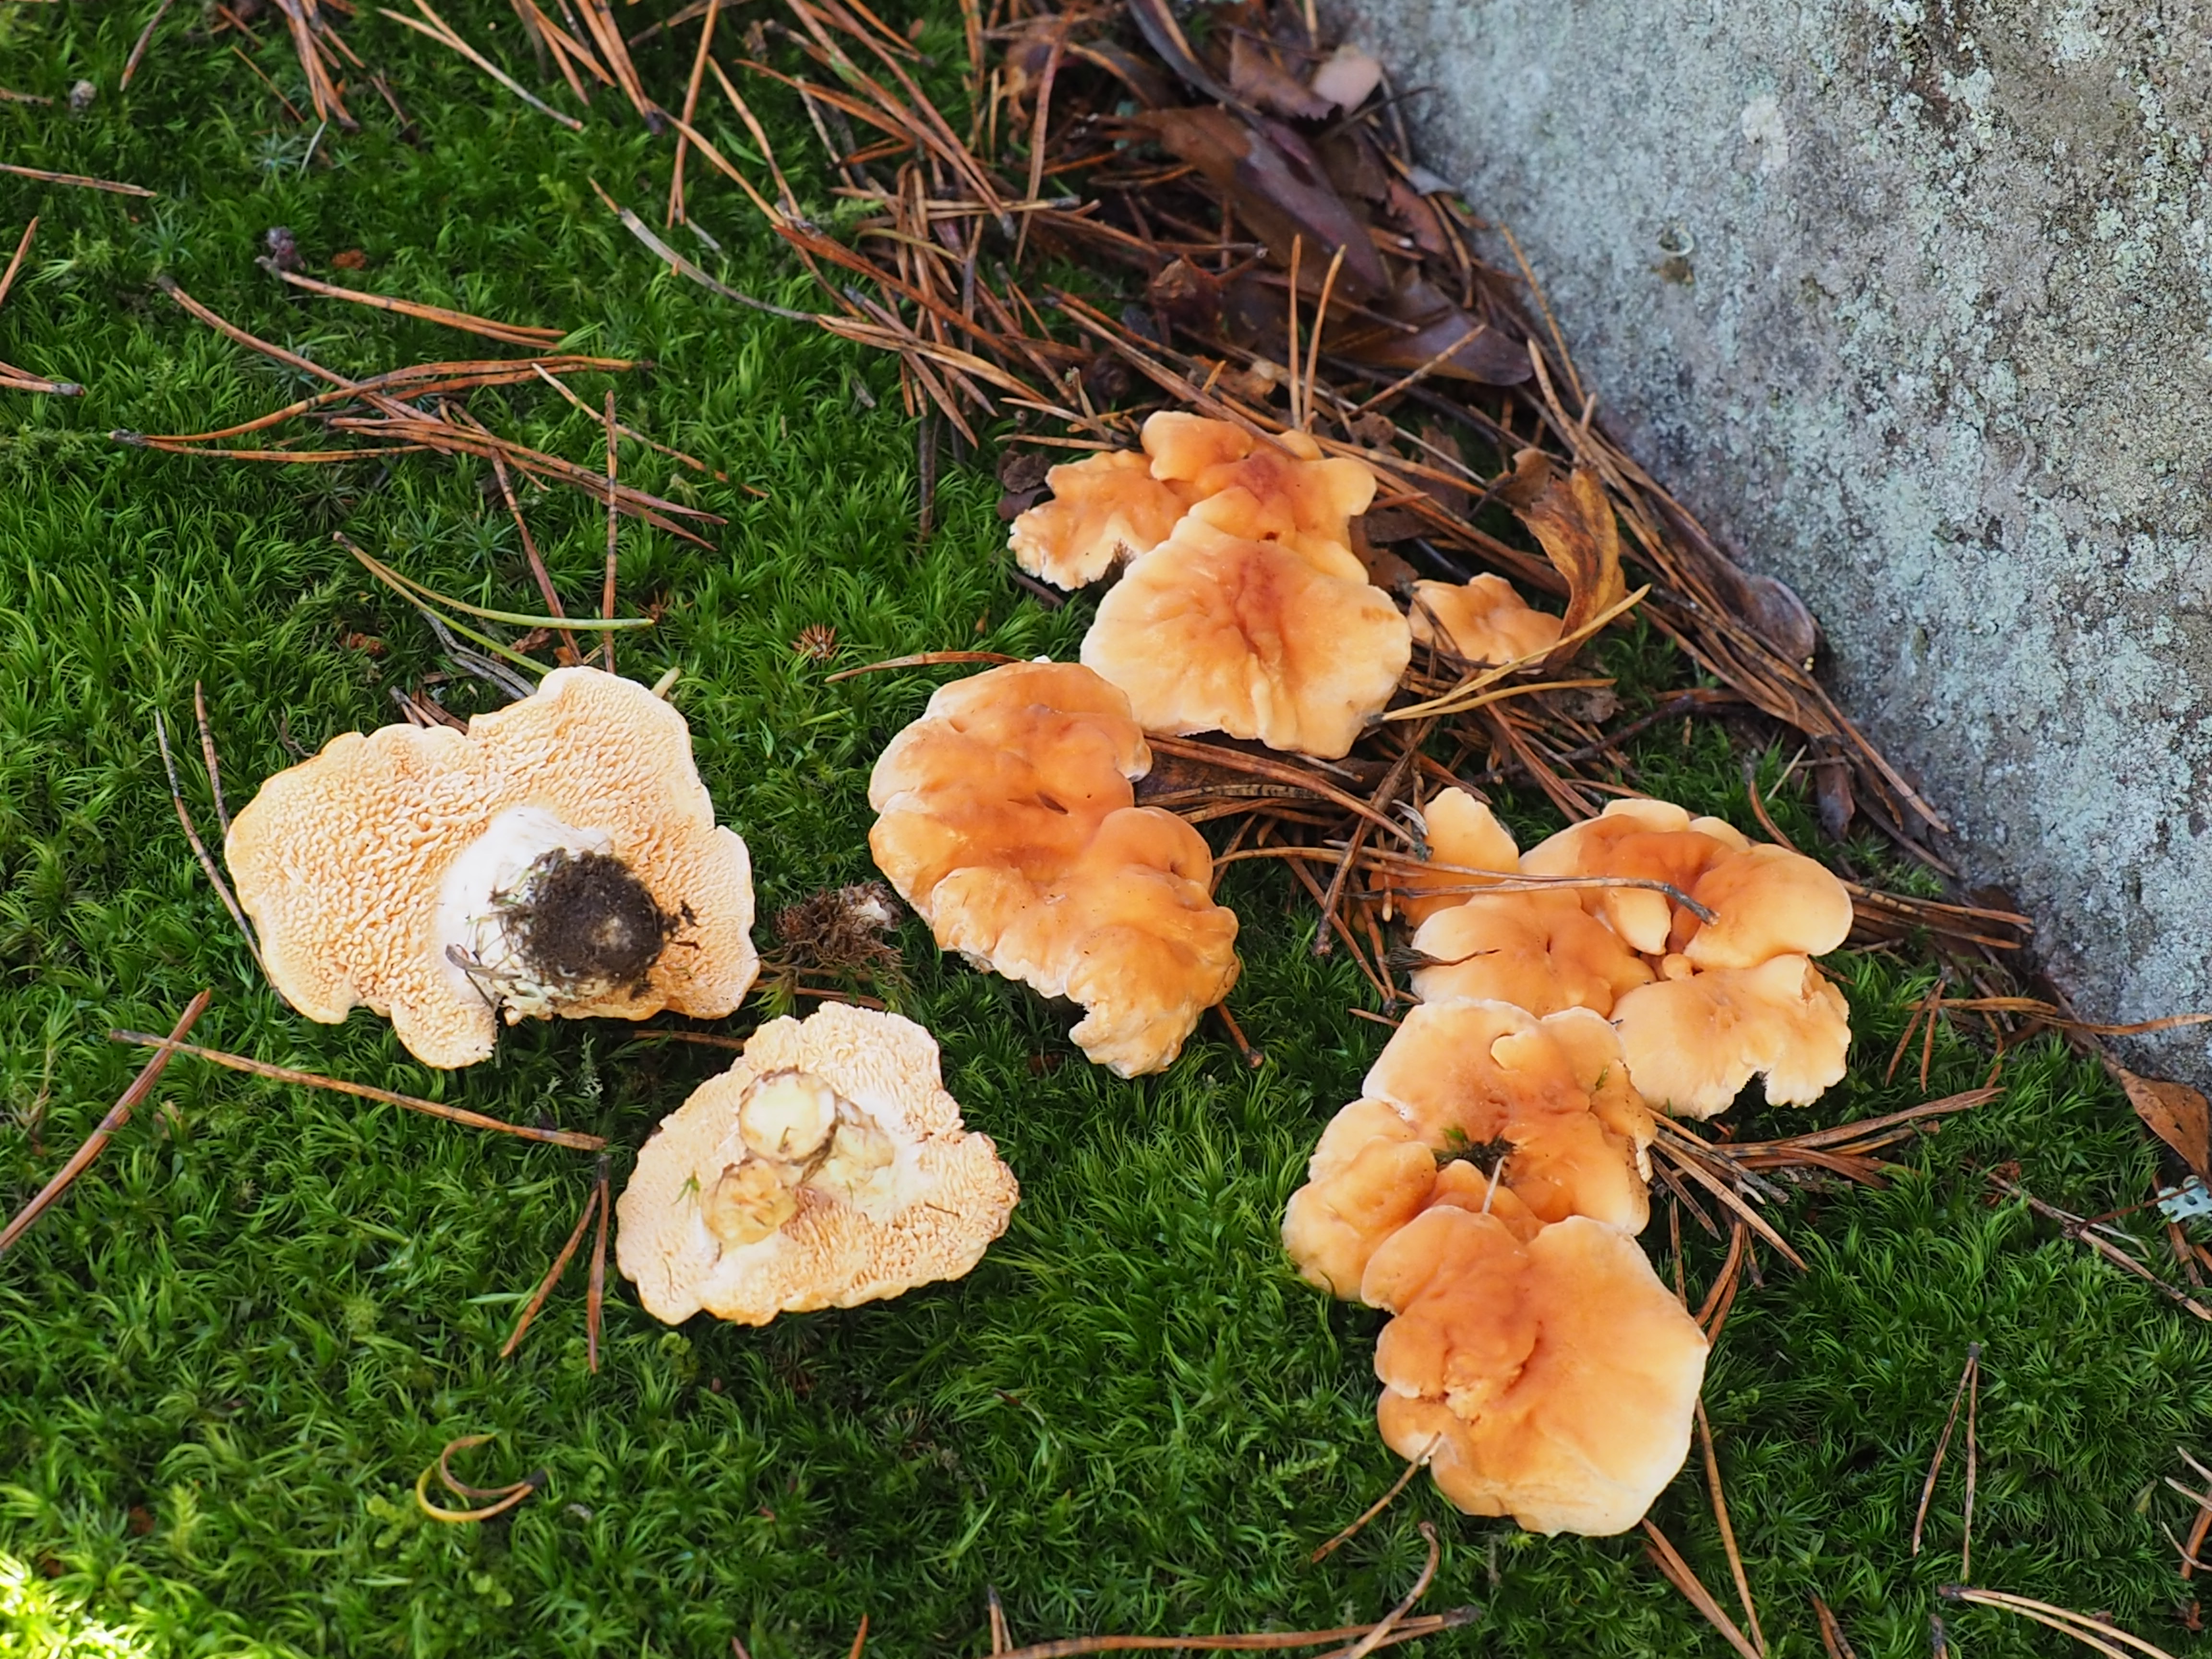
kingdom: Fungi
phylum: Basidiomycota
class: Agaricomycetes
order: Cantharellales
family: Hydnaceae
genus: Hydnum
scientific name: Hydnum rufescens
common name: Terracotta hedgehog
